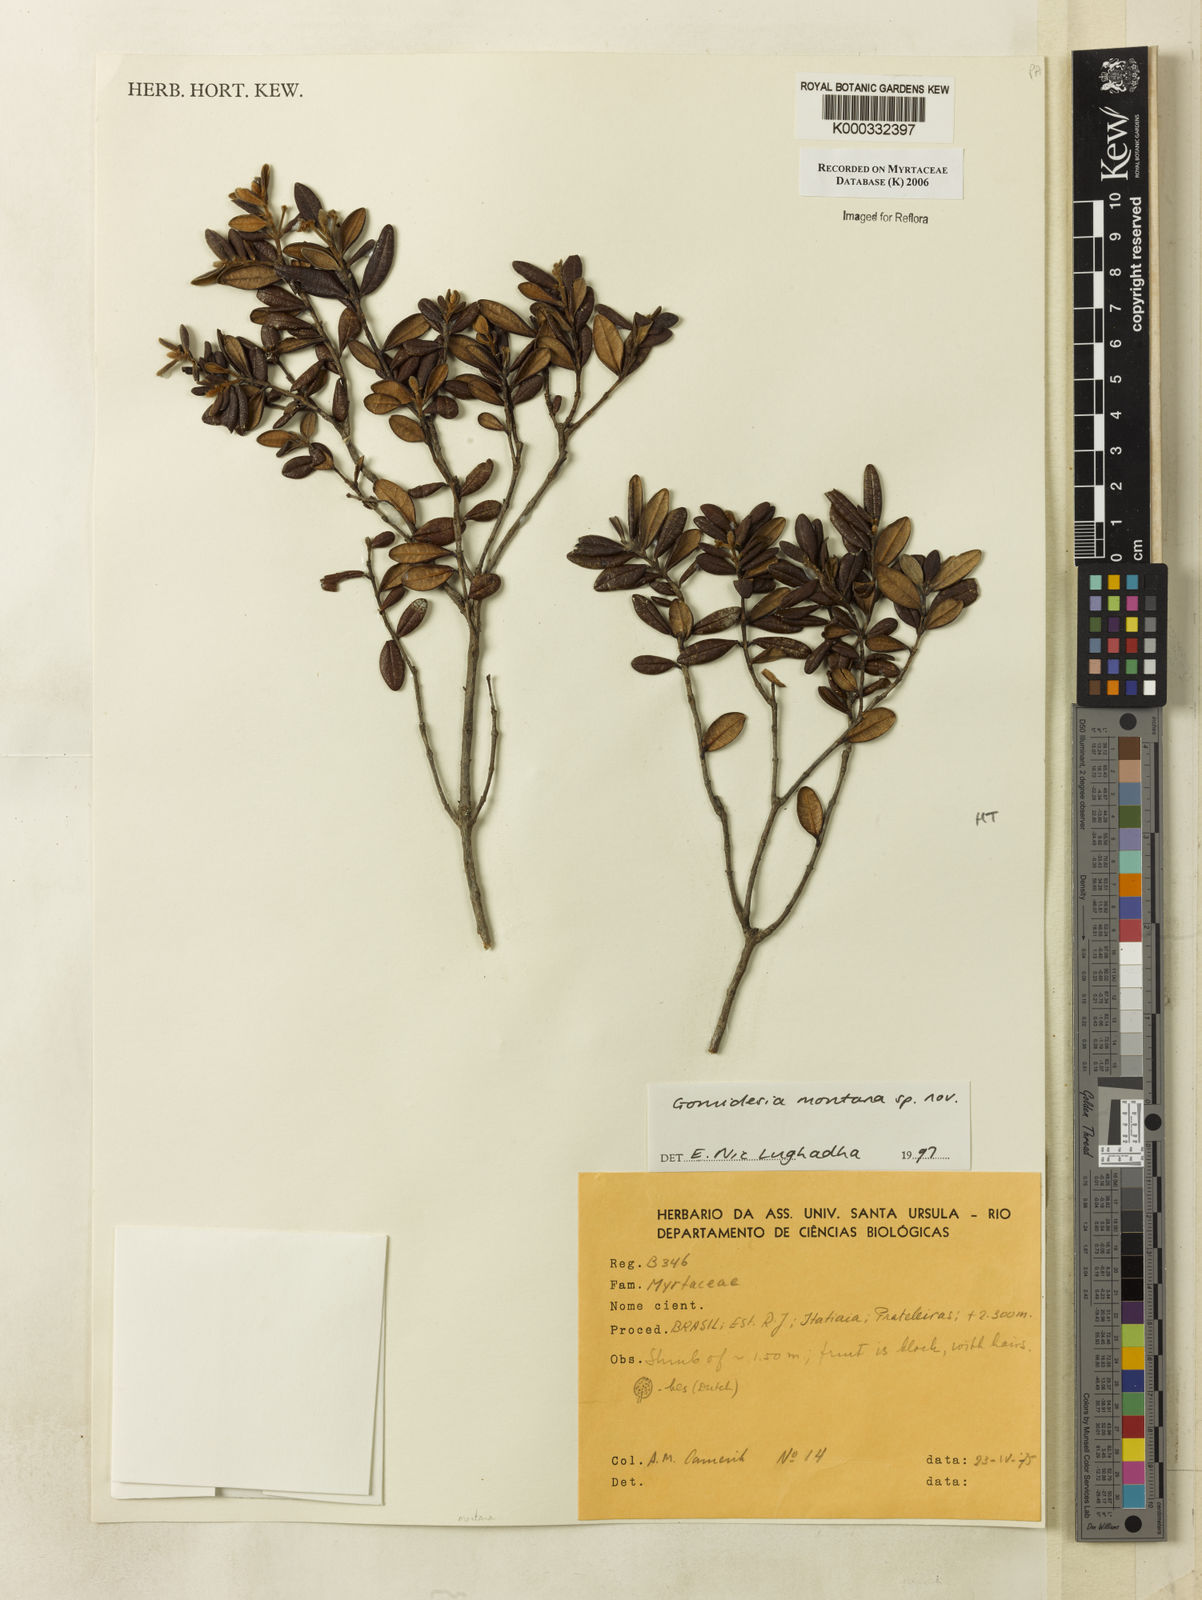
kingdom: Plantae
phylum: Tracheophyta
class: Magnoliopsida
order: Myrtales
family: Myrtaceae
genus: Myrcia
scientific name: Myrcia
